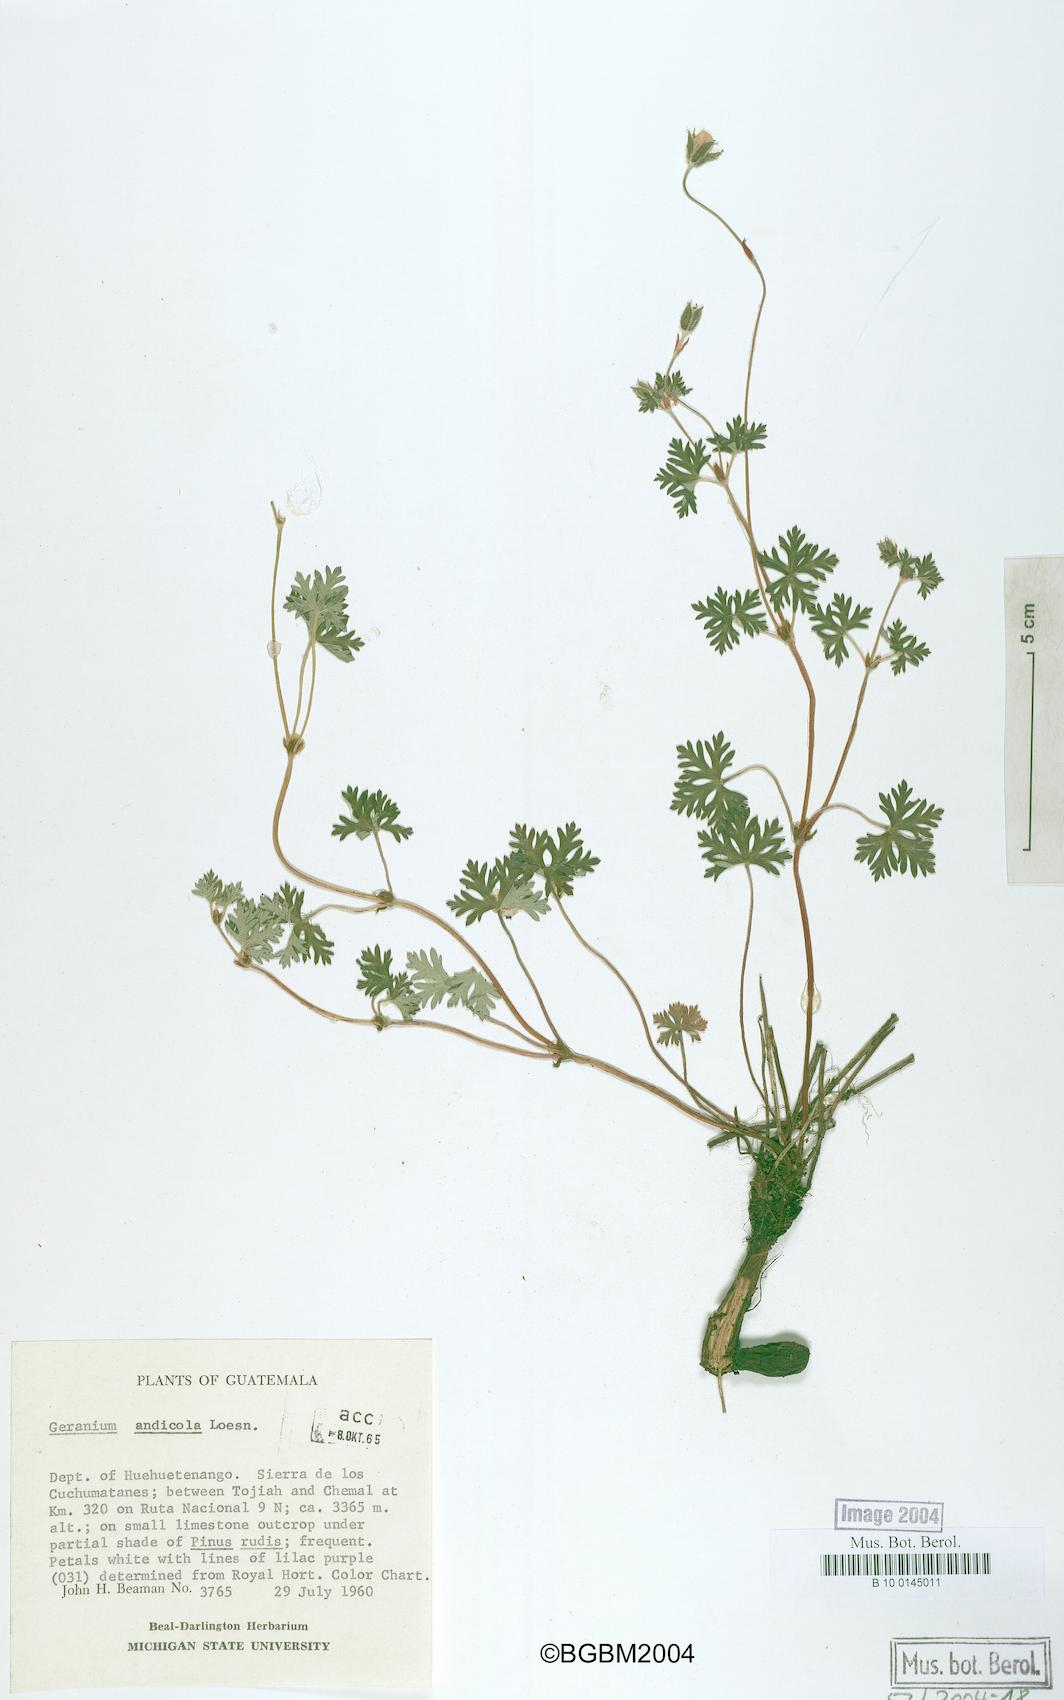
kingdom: Plantae
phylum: Tracheophyta
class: Magnoliopsida
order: Geraniales
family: Geraniaceae
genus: Geranium
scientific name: Geranium andicola
